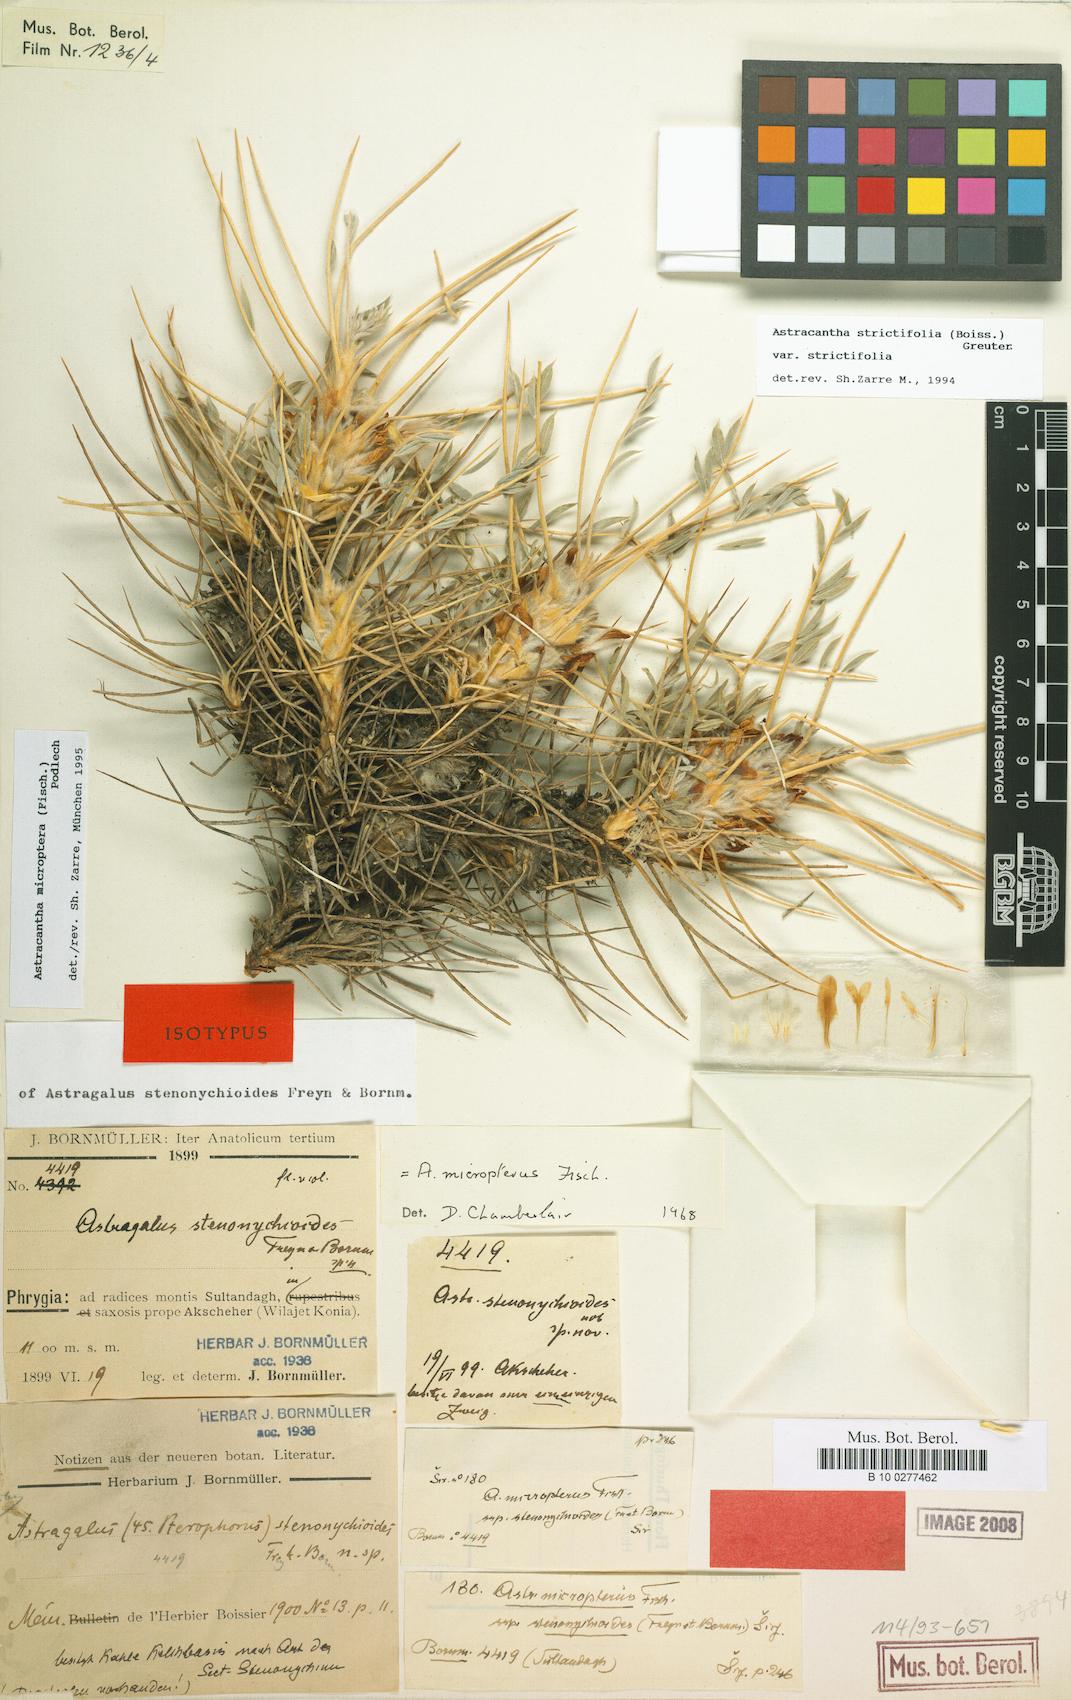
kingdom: Plantae
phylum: Tracheophyta
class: Magnoliopsida
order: Fabales
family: Fabaceae
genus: Astragalus
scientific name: Astragalus micropterus
